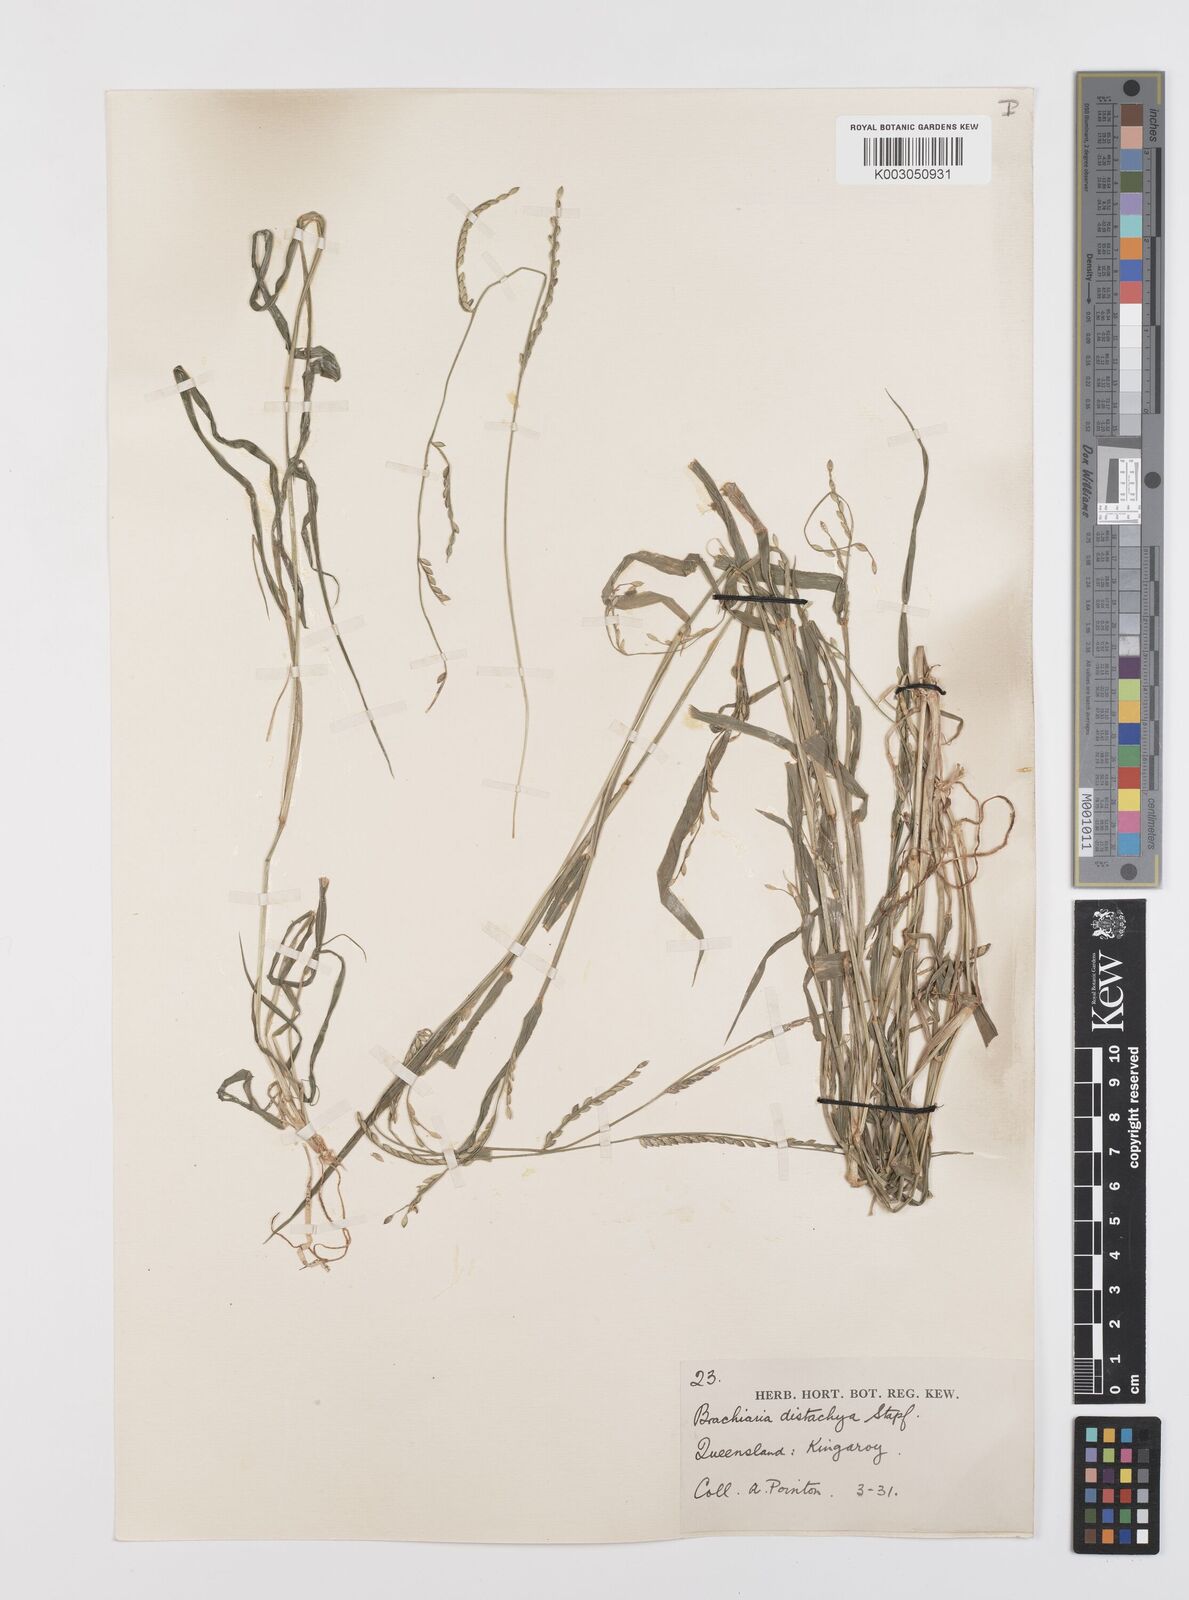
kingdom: Plantae
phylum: Tracheophyta
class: Liliopsida
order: Poales
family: Poaceae
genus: Urochloa
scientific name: Urochloa subquadripara
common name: Armgrass millet
